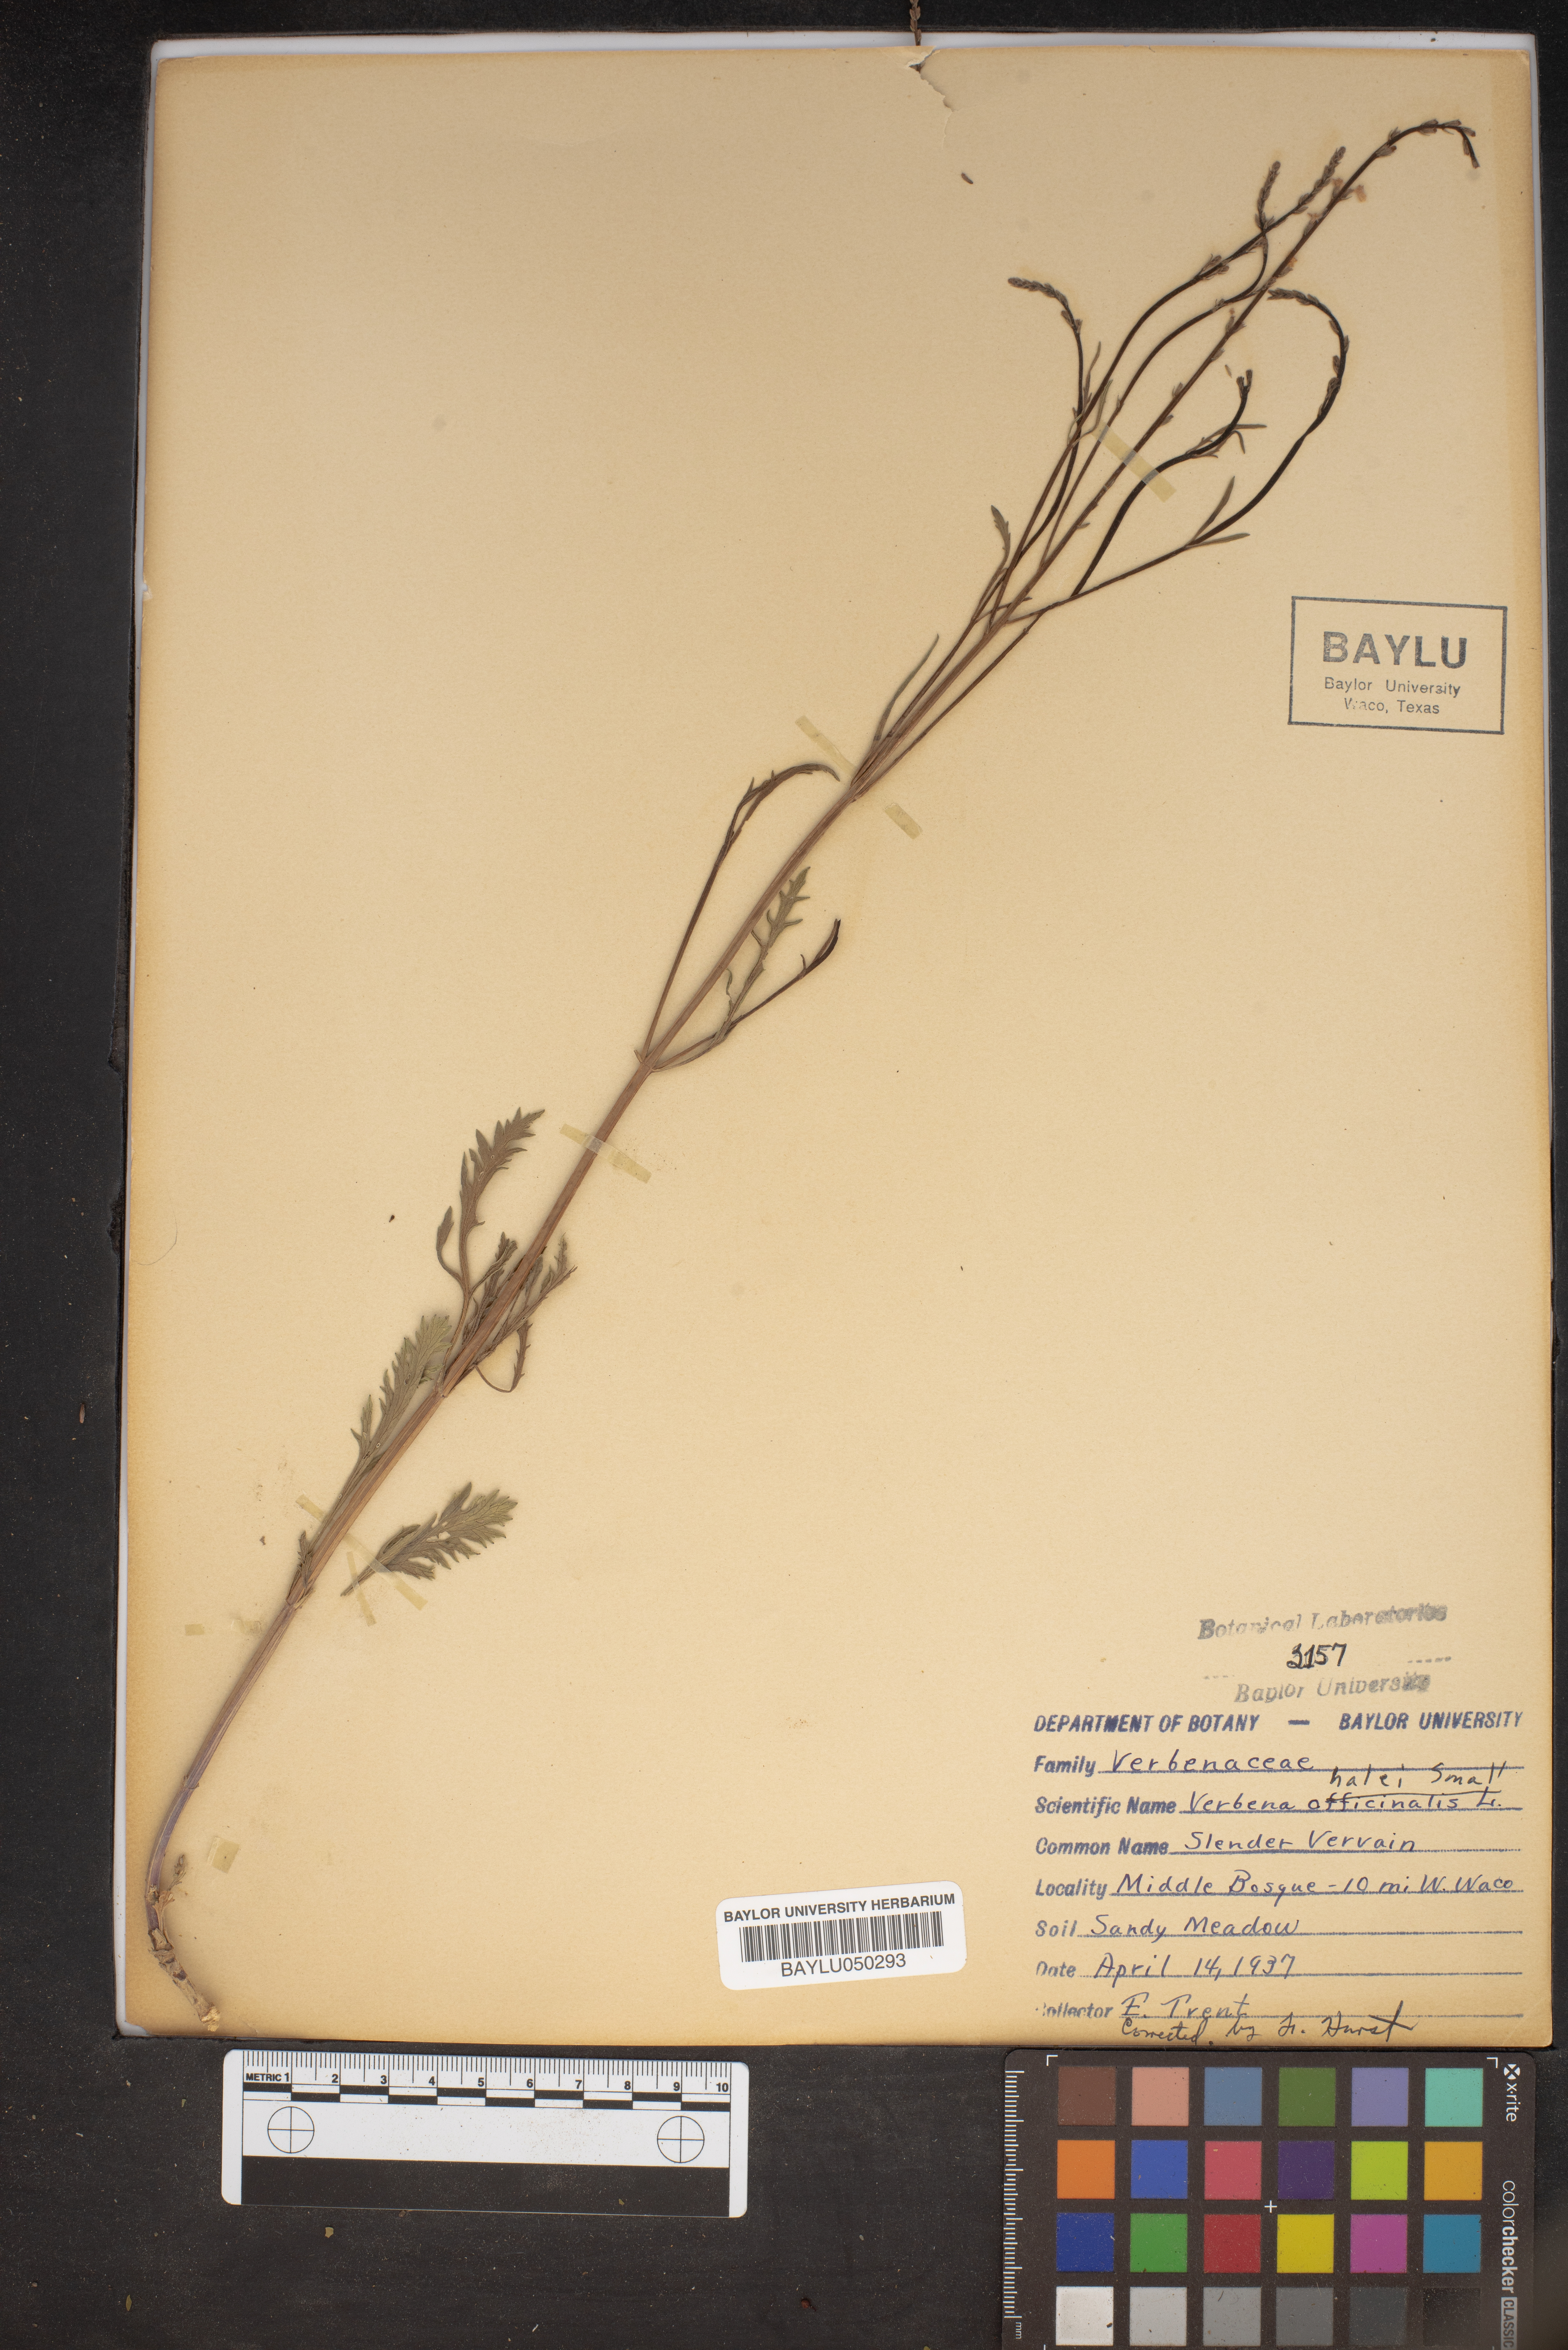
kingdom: Plantae
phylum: Tracheophyta
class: Magnoliopsida
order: Lamiales
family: Verbenaceae
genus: Verbena
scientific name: Verbena halei
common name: Texas vervain
